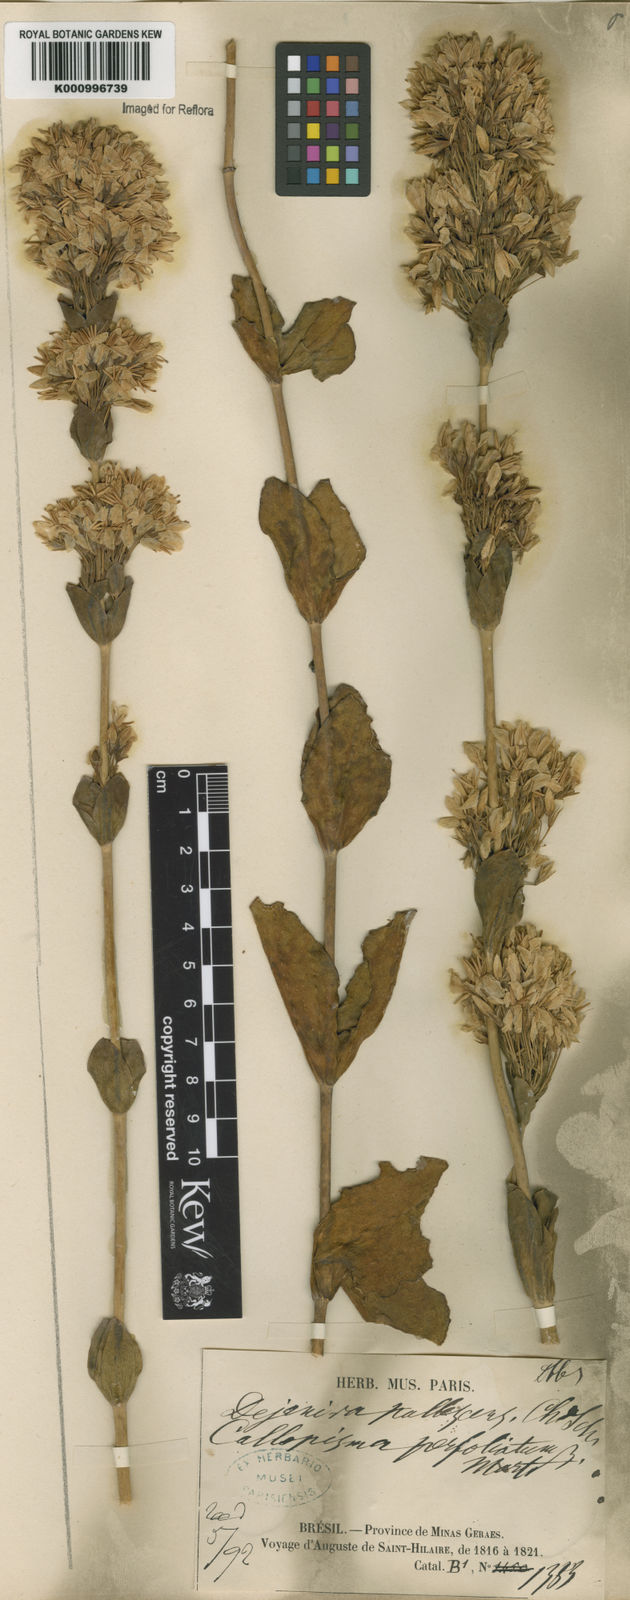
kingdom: Plantae
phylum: Tracheophyta
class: Magnoliopsida
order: Gentianales
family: Gentianaceae
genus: Deianira
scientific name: Deianira pallescens
